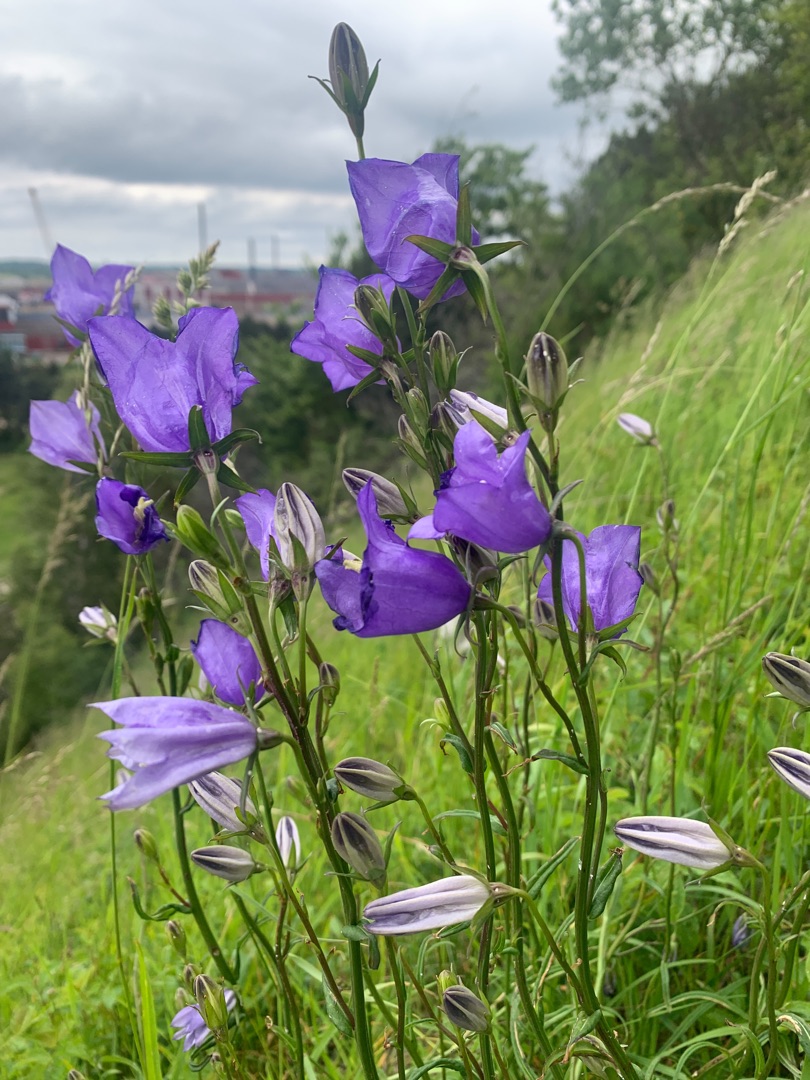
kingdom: Plantae
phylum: Tracheophyta
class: Magnoliopsida
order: Asterales
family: Campanulaceae
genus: Campanula
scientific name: Campanula persicifolia
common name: Smalbladet klokke
